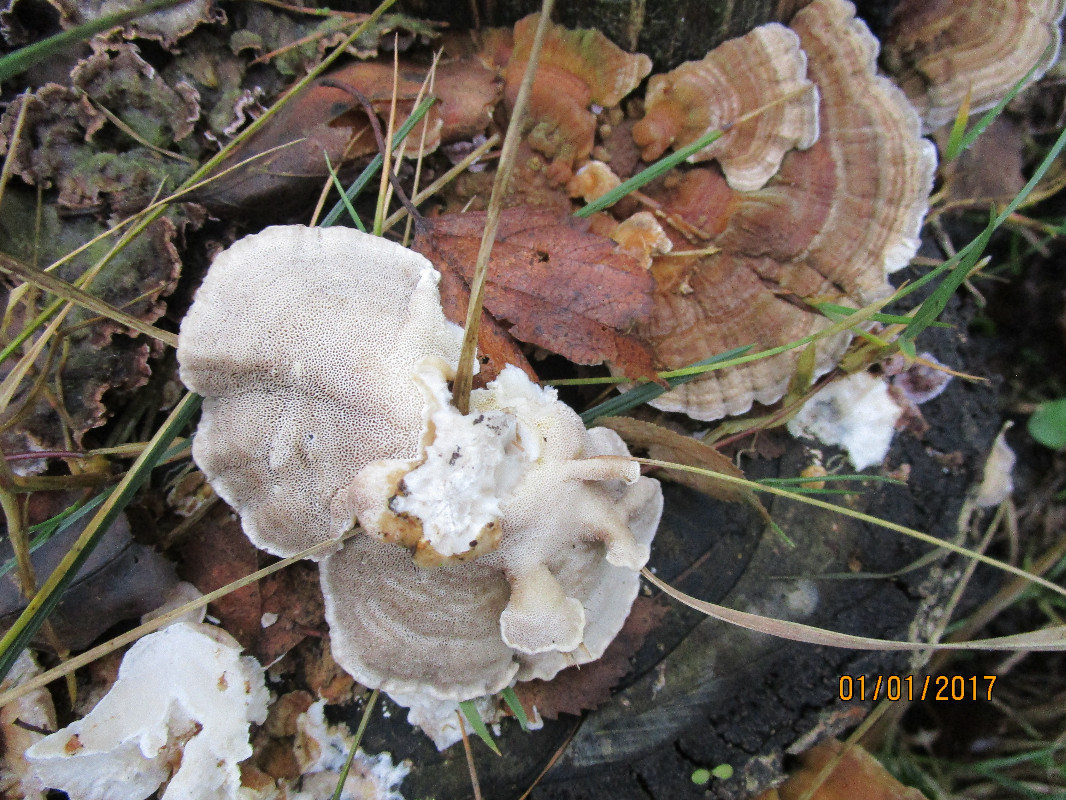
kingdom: Fungi
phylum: Basidiomycota
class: Agaricomycetes
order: Polyporales
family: Phanerochaetaceae
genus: Bjerkandera
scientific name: Bjerkandera adusta
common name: sveden sodporesvamp
